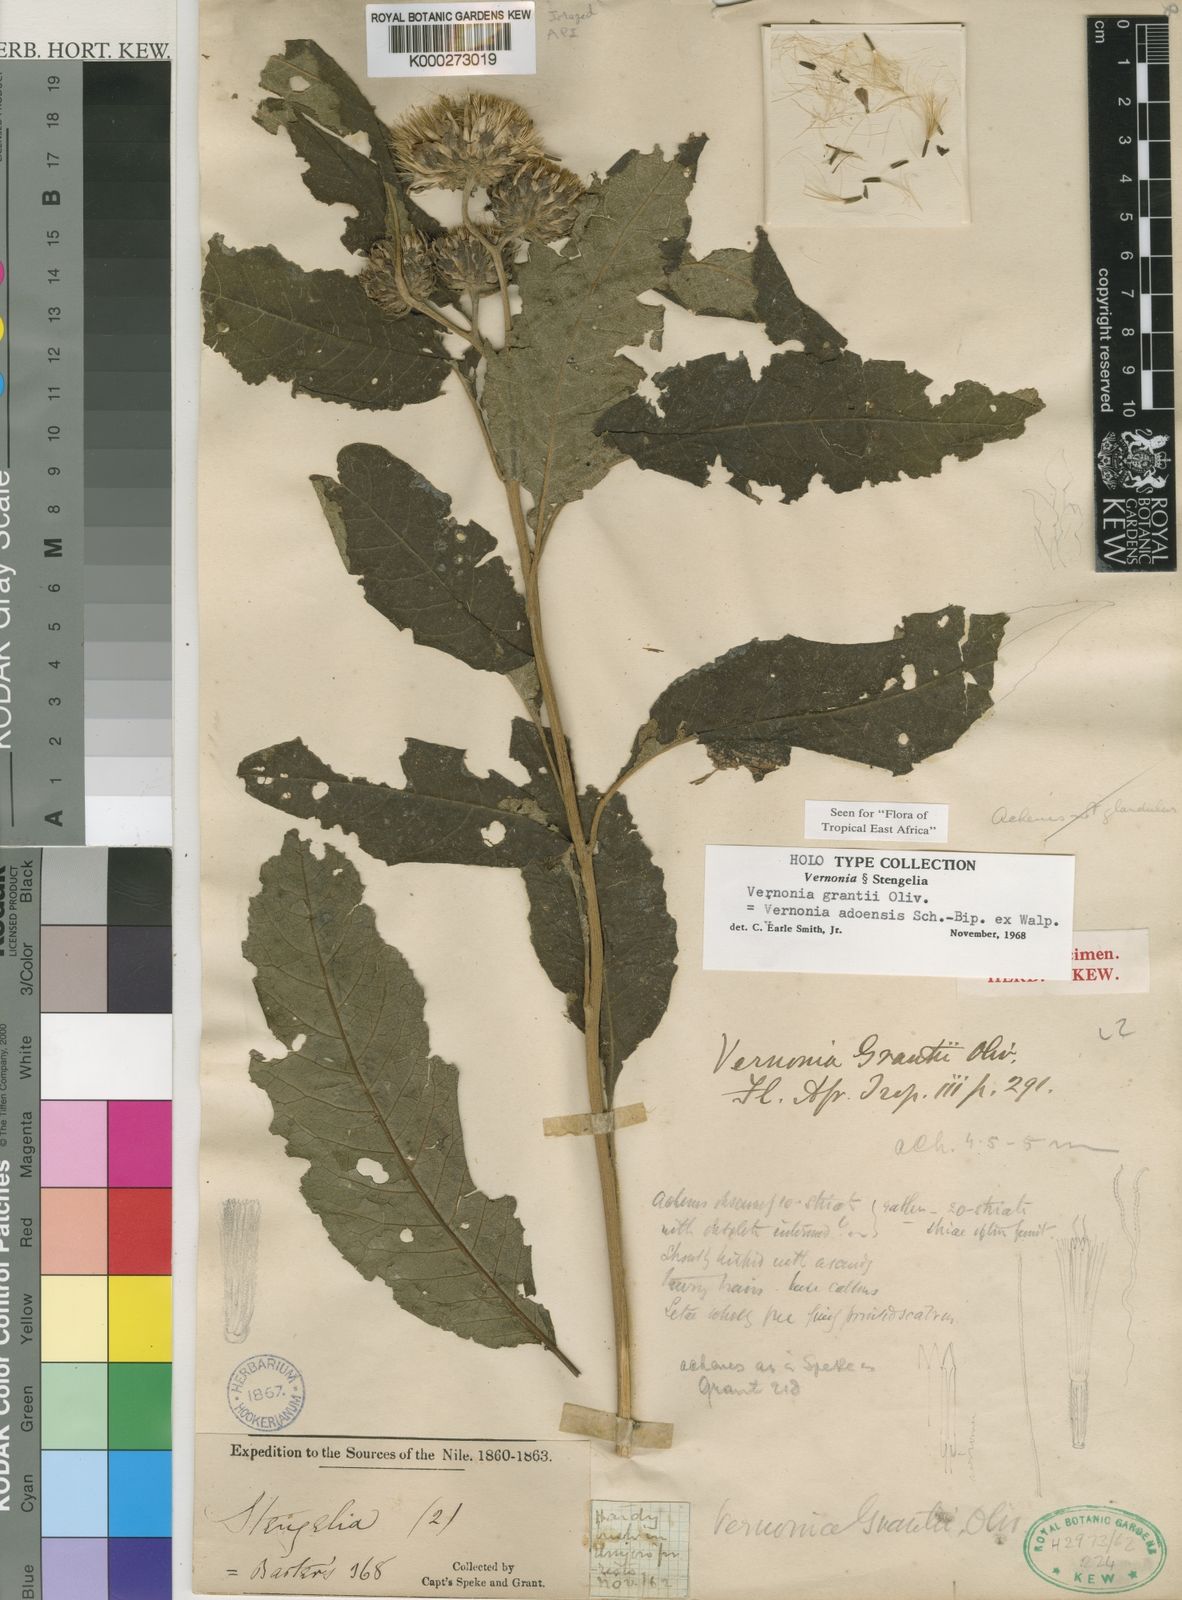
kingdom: Plantae
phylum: Tracheophyta
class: Magnoliopsida
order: Asterales
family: Asteraceae
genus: Baccharoides
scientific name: Baccharoides adoensis
